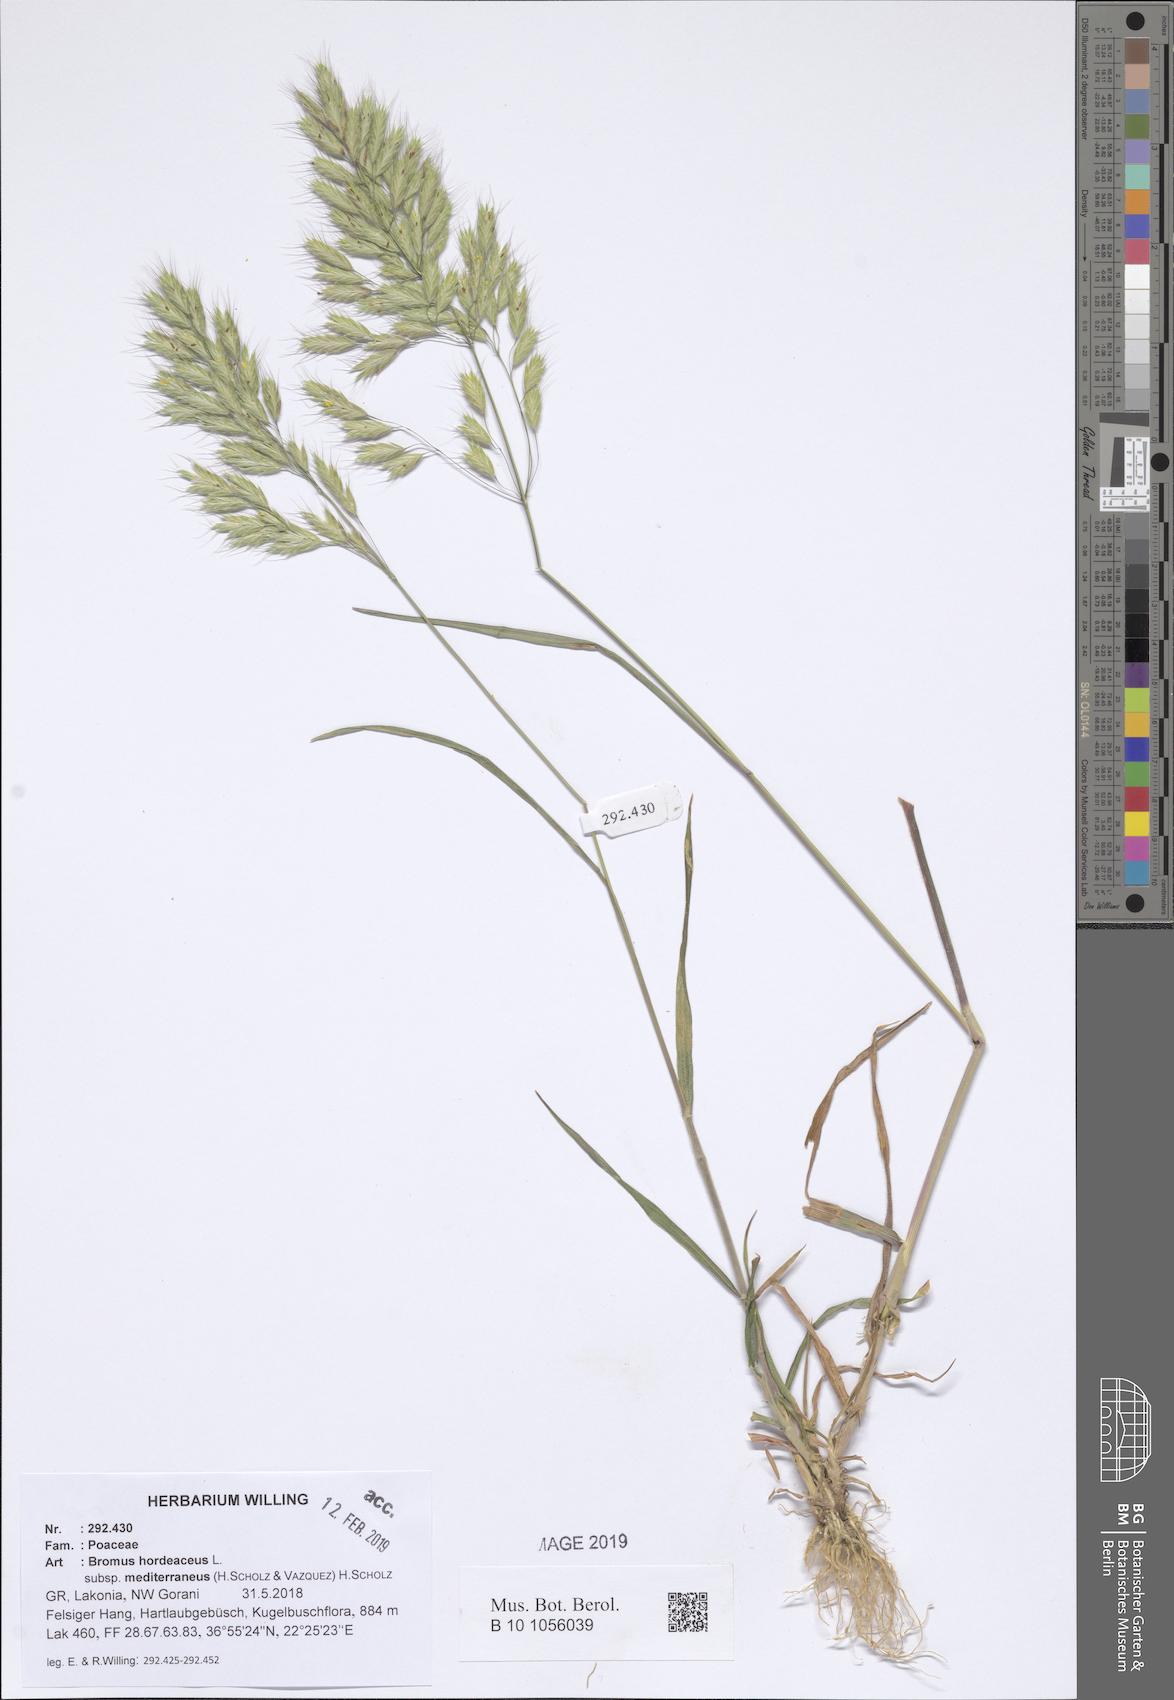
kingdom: Plantae
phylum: Tracheophyta
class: Liliopsida
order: Poales
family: Poaceae
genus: Bromus
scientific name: Bromus hordeaceus
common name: Soft brome
